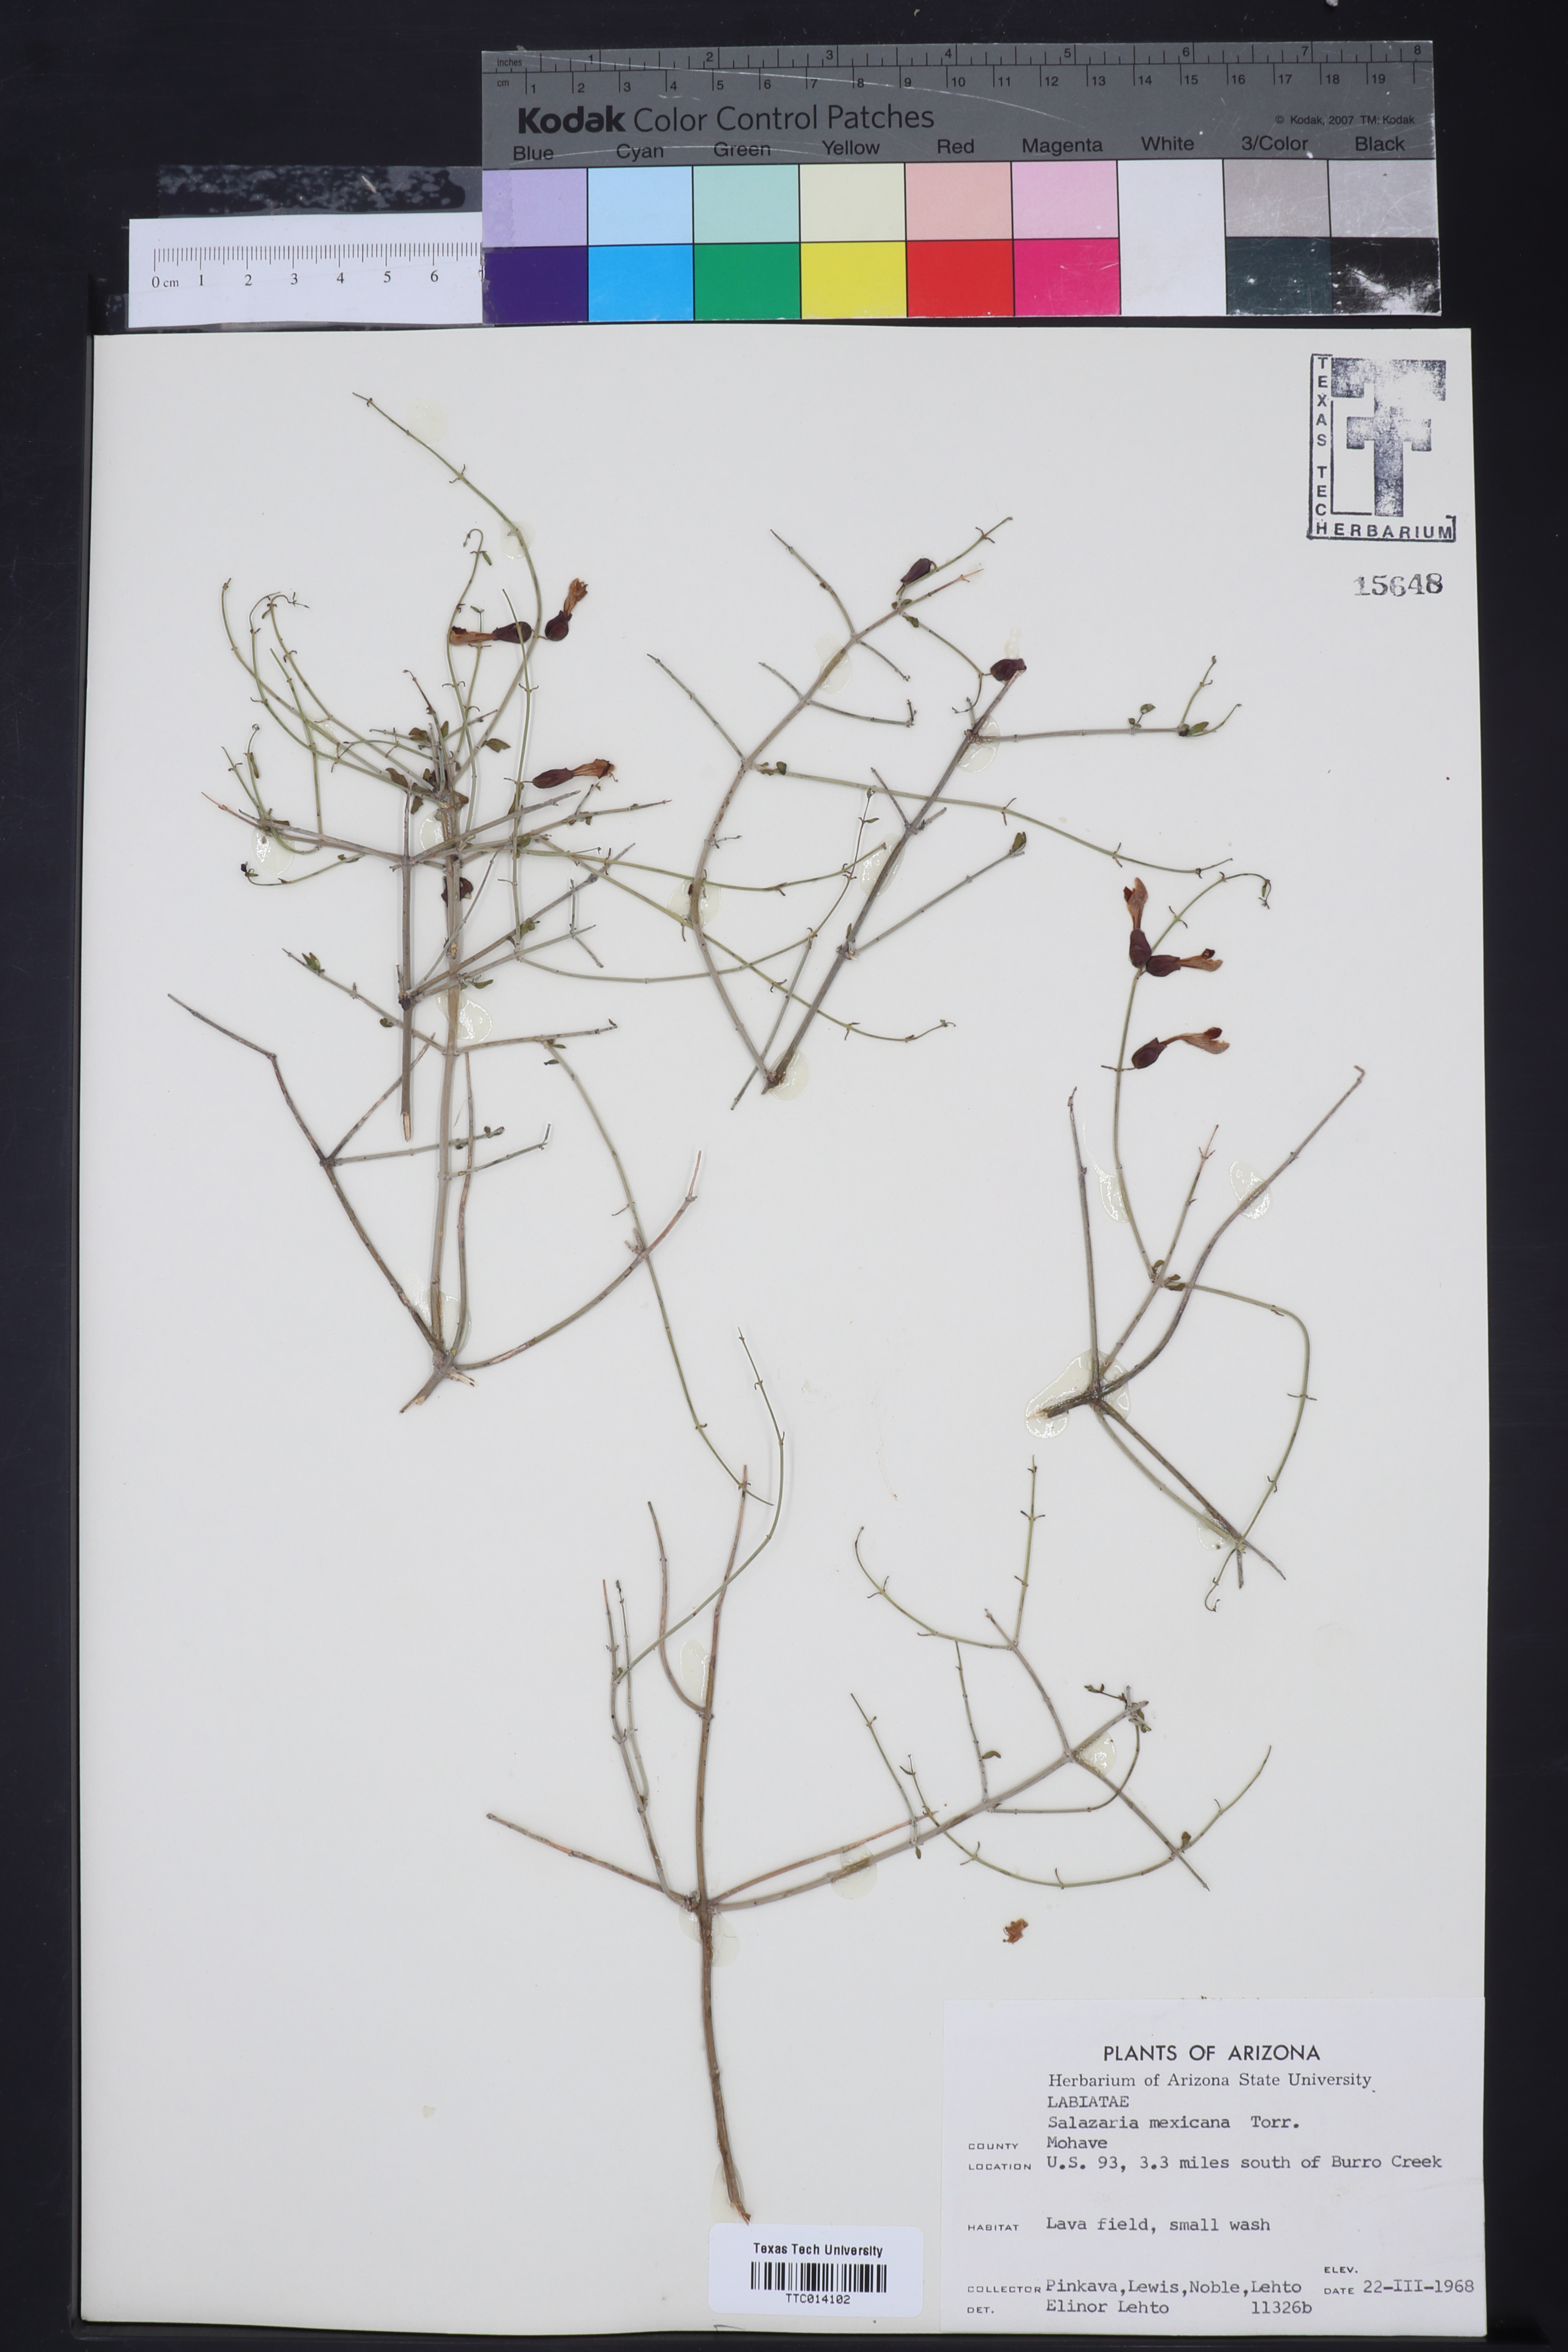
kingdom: Plantae
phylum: Tracheophyta
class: Magnoliopsida
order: Lamiales
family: Lamiaceae
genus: Scutellaria
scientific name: Scutellaria mexicana
